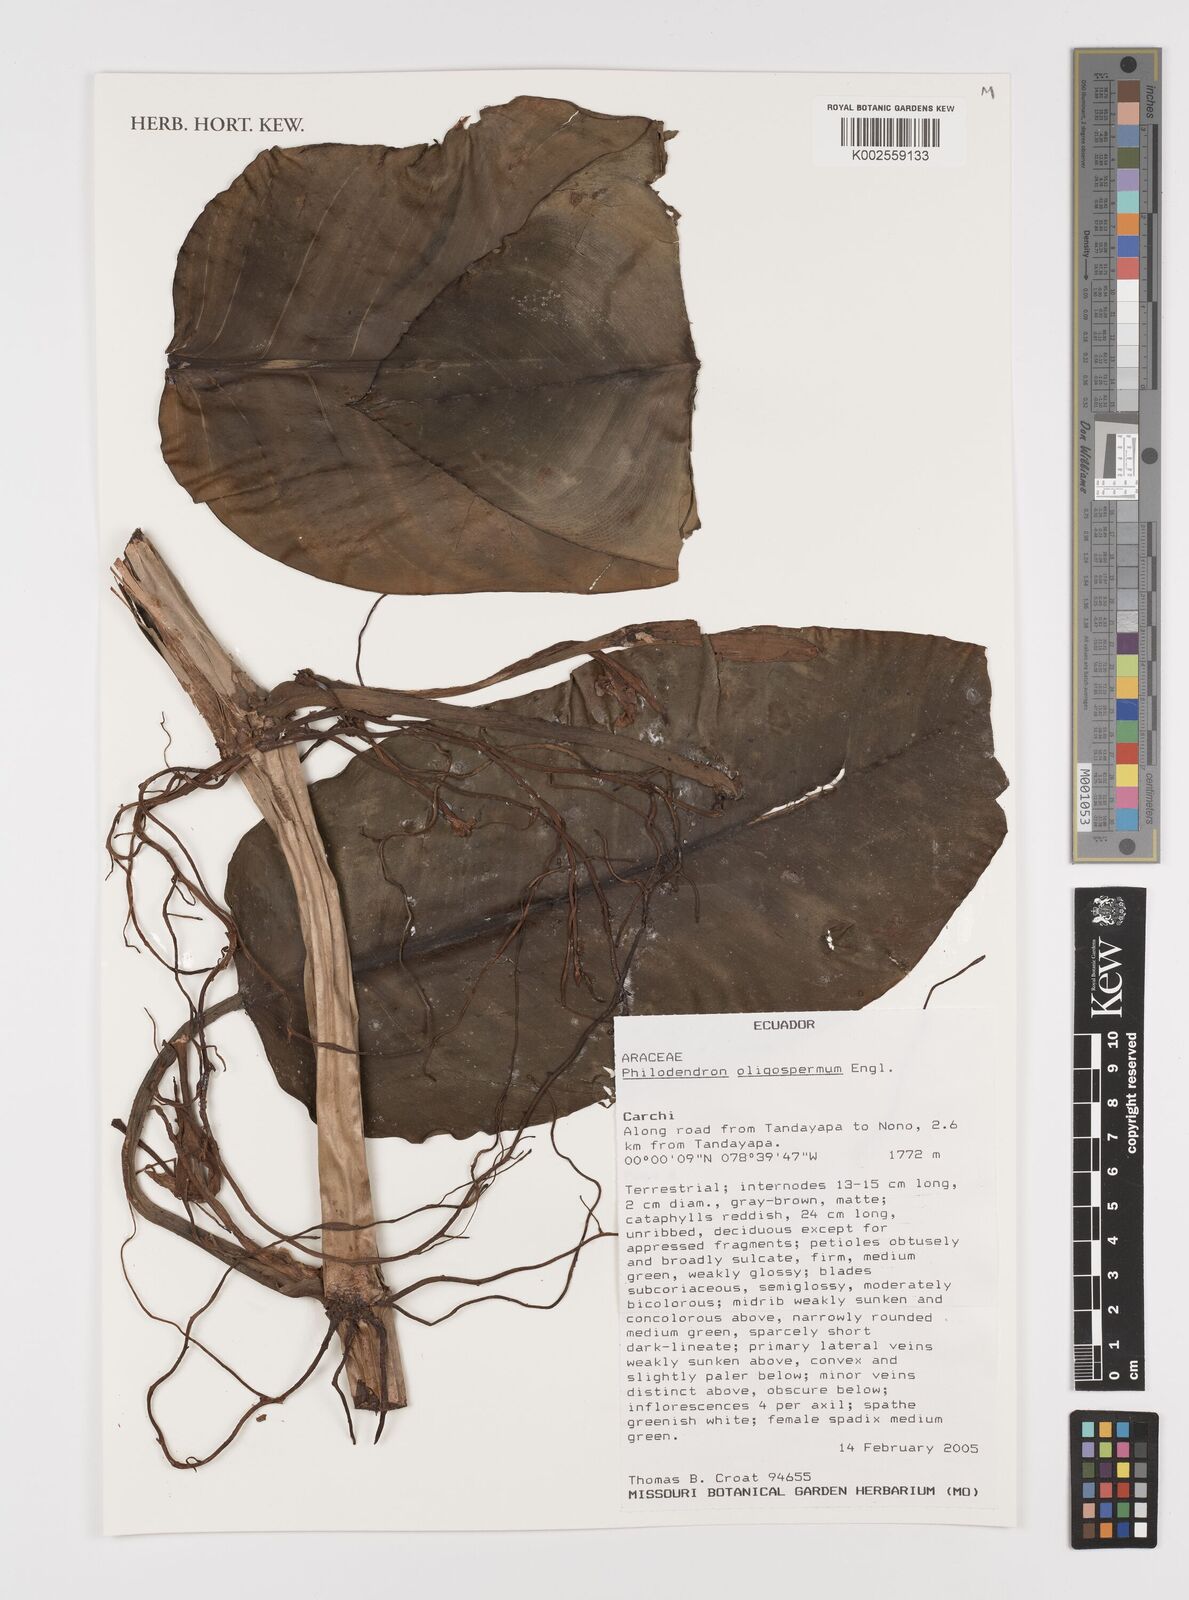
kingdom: Plantae
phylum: Tracheophyta
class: Liliopsida
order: Alismatales
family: Araceae
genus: Philodendron
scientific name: Philodendron oligospermum
